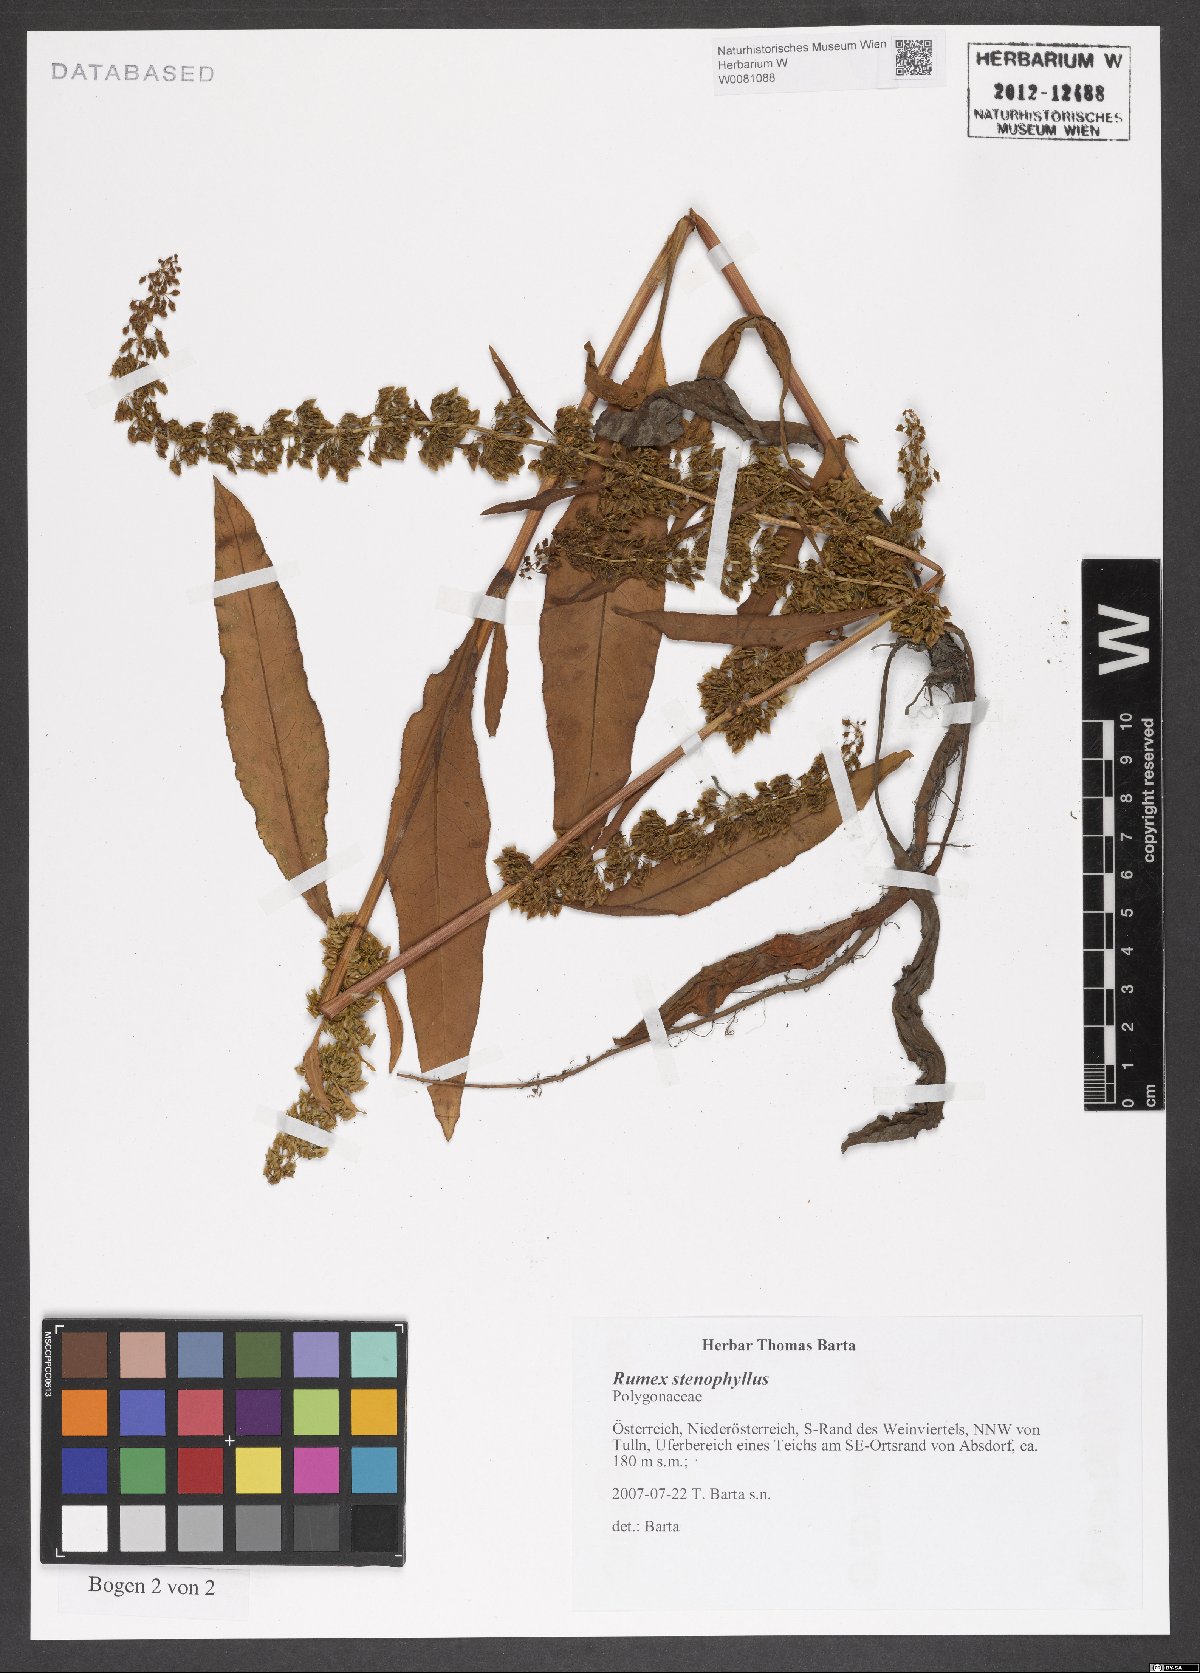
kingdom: Plantae
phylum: Tracheophyta
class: Magnoliopsida
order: Caryophyllales
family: Polygonaceae
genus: Rumex
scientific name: Rumex stenophyllus
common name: Narrowleaf dock
